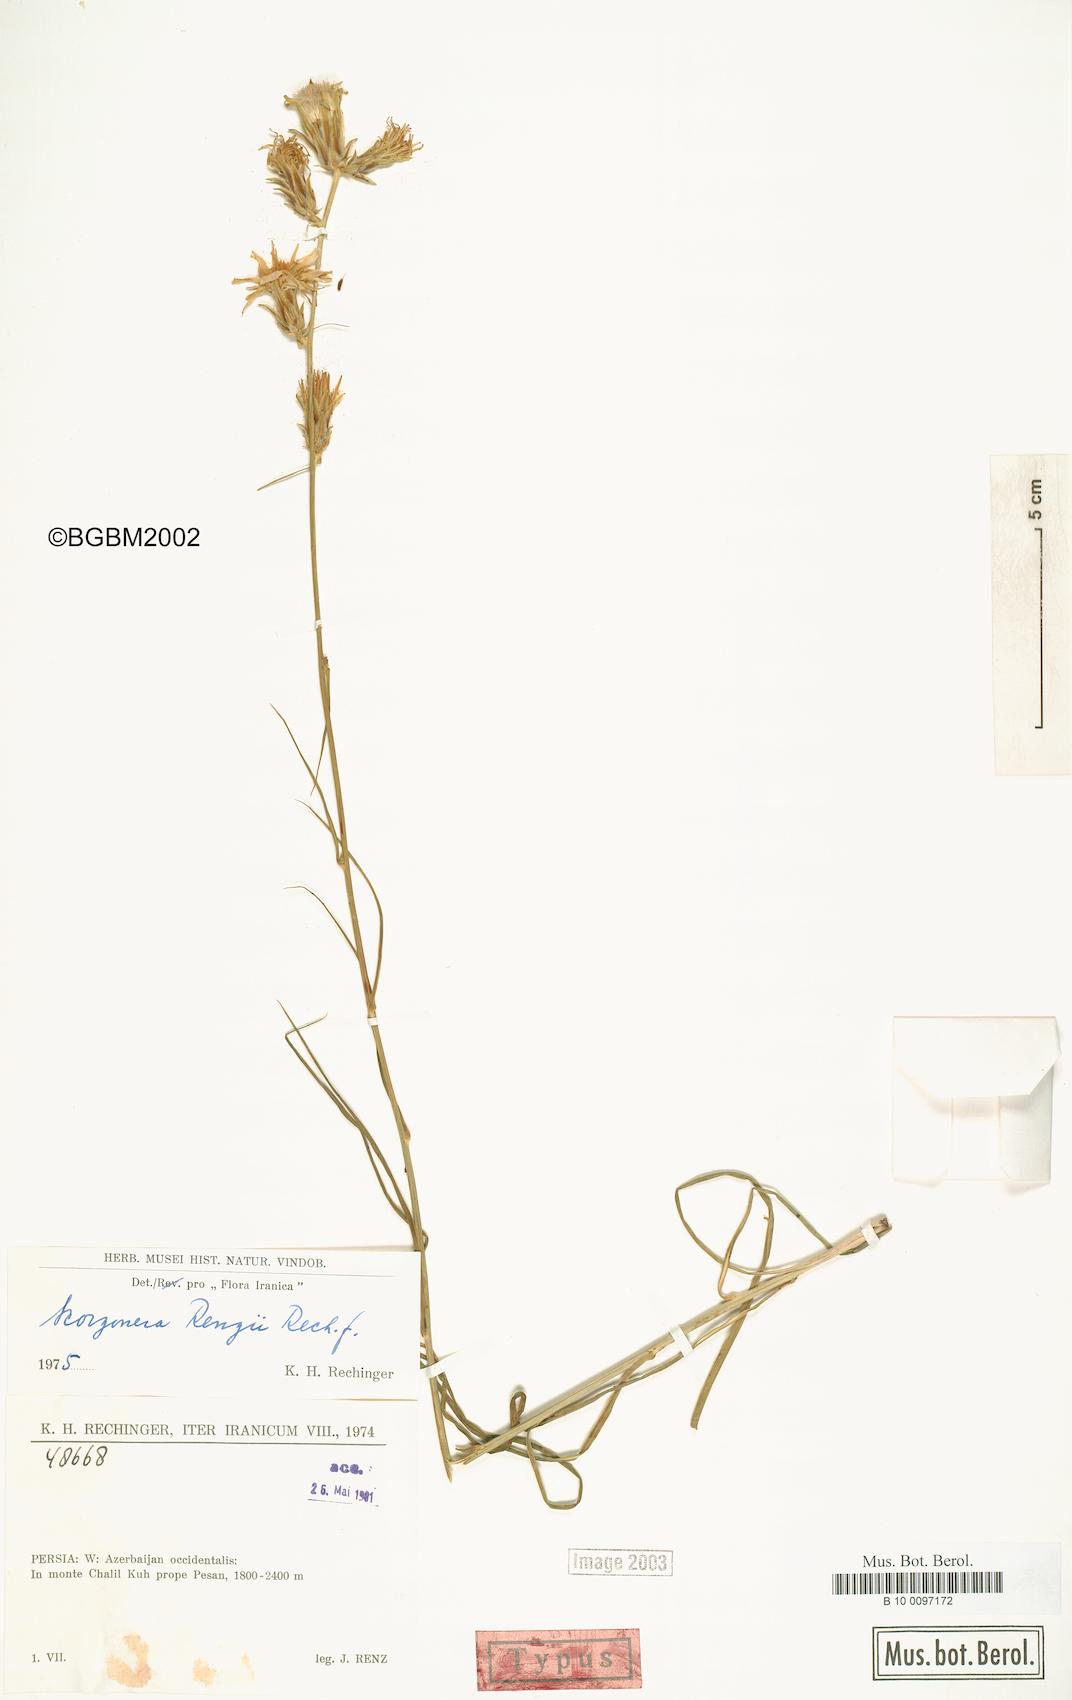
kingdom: Plantae
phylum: Tracheophyta
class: Magnoliopsida
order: Asterales
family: Asteraceae
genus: Candollea
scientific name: Candollea renzii
